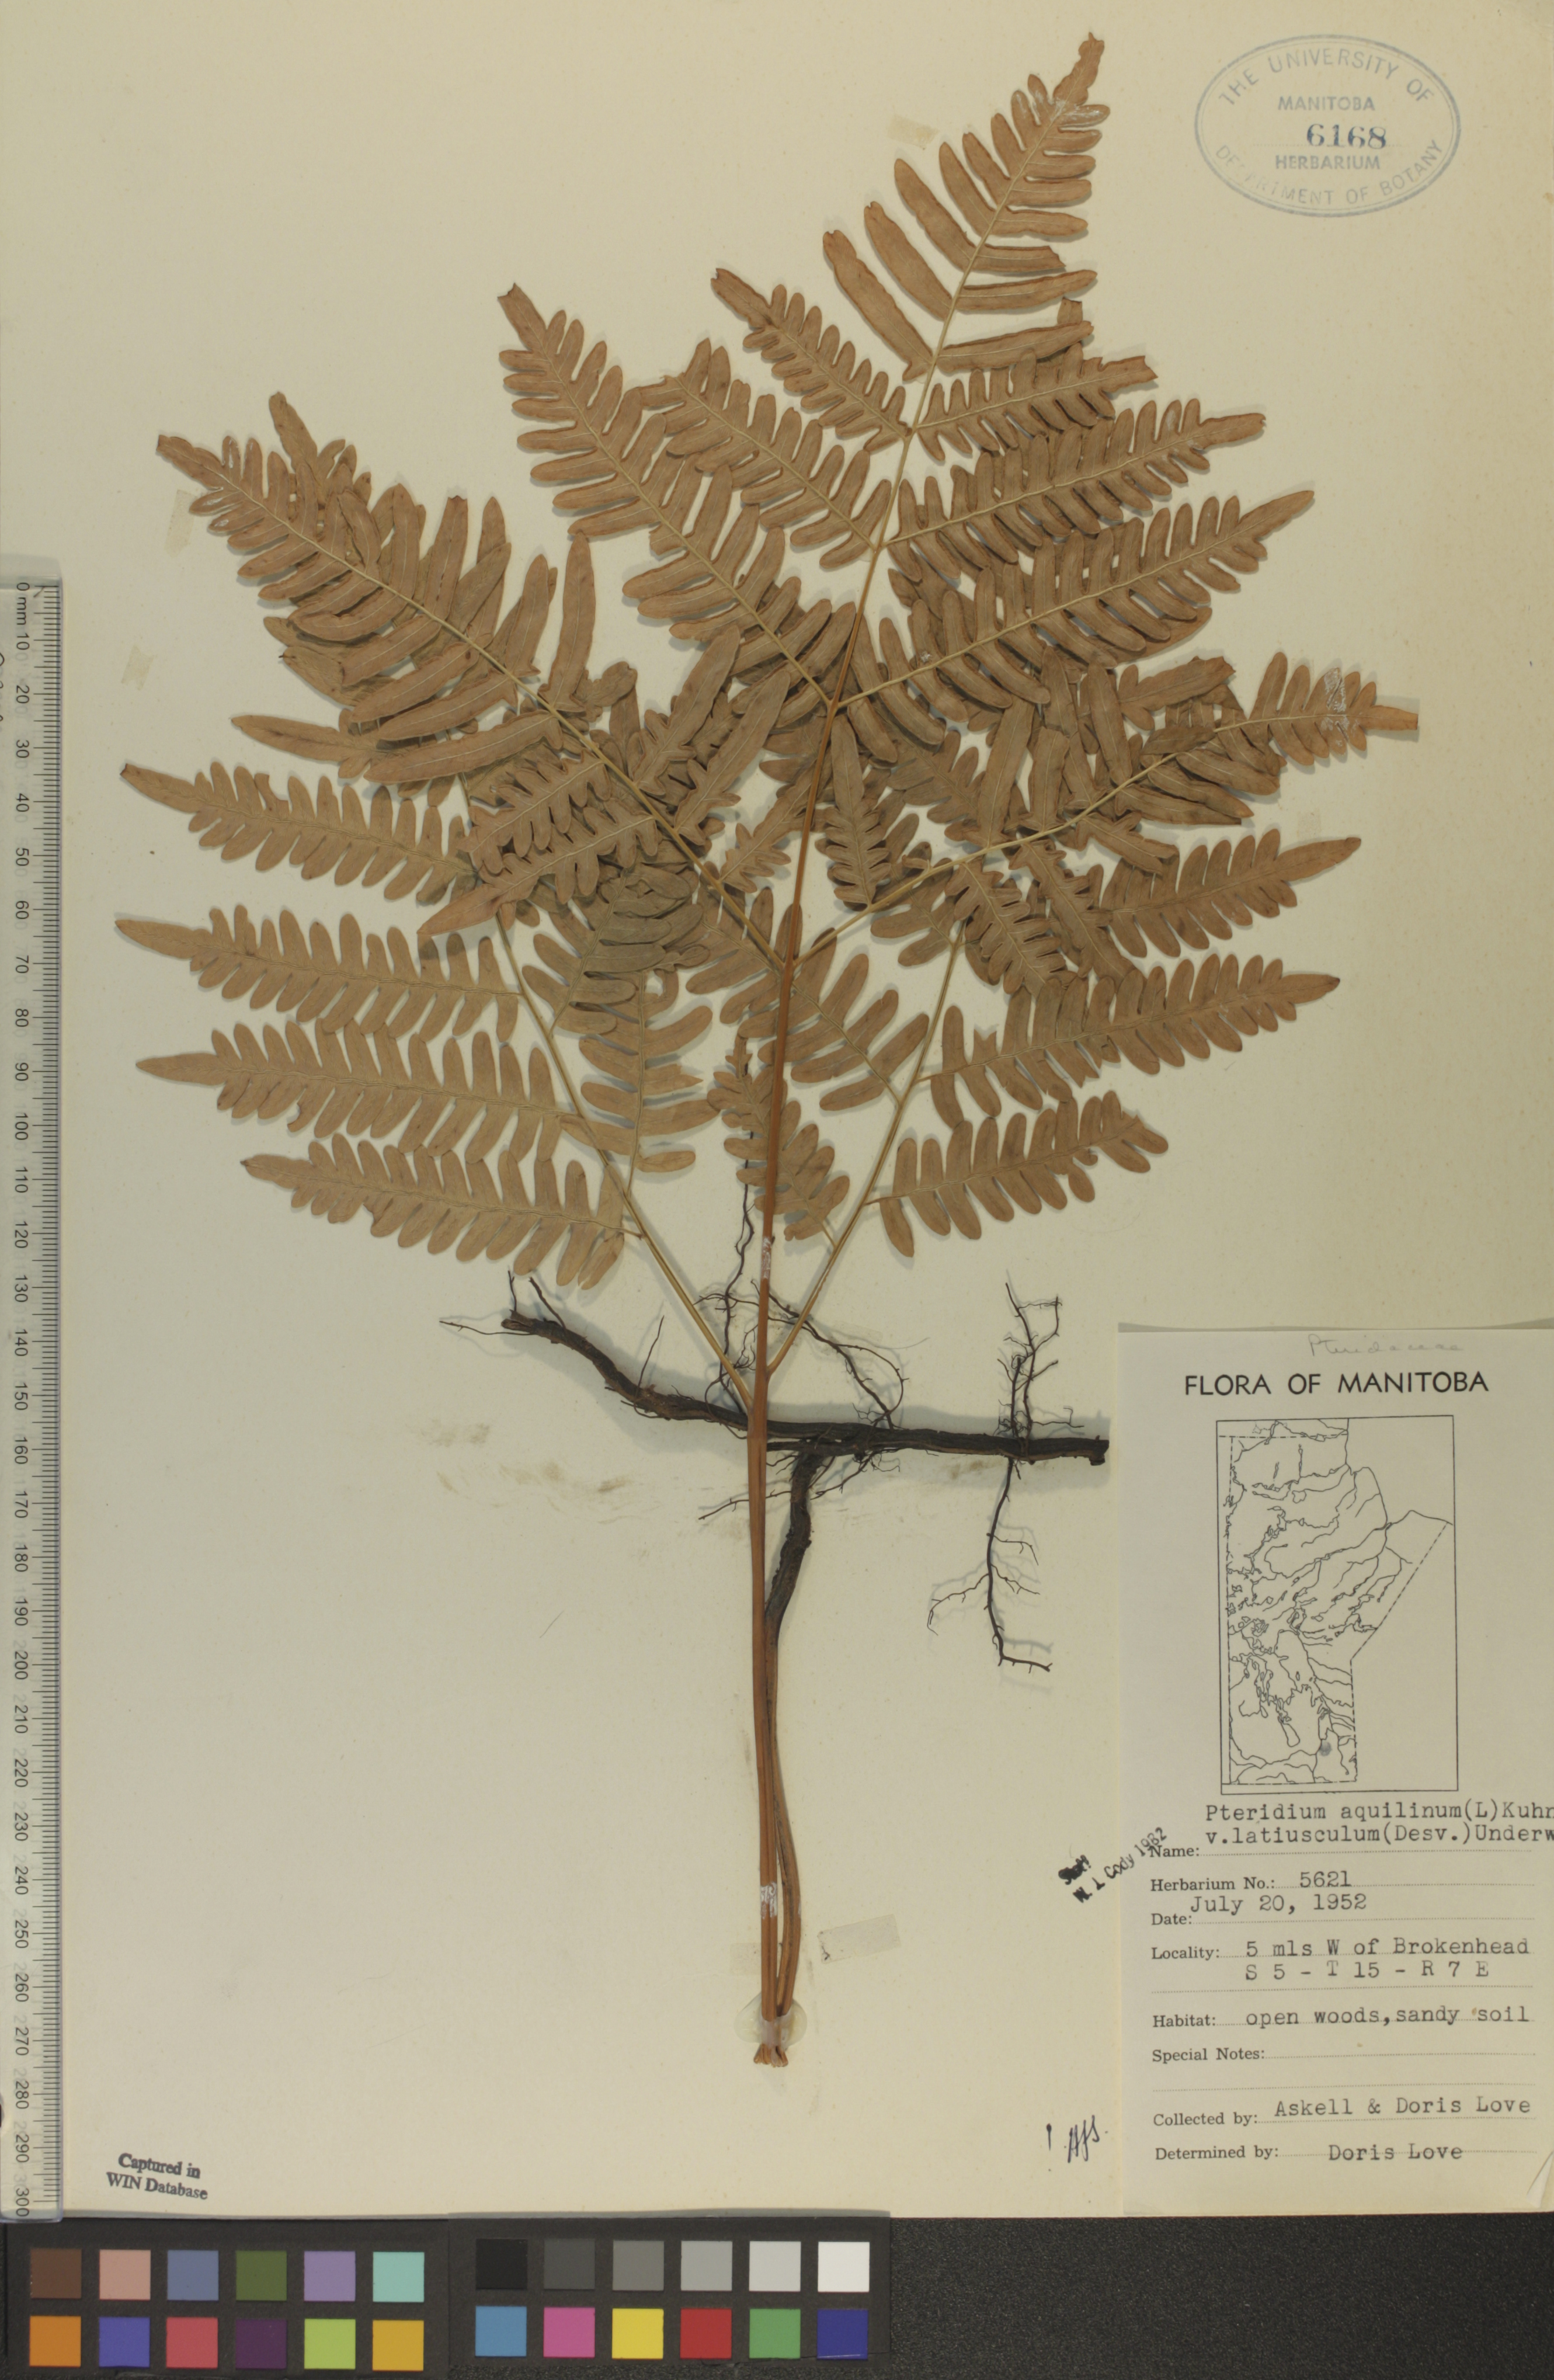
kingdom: Plantae
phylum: Tracheophyta
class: Polypodiopsida
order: Polypodiales
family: Dennstaedtiaceae
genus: Pteridium
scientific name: Pteridium aquilinum
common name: Bracken
